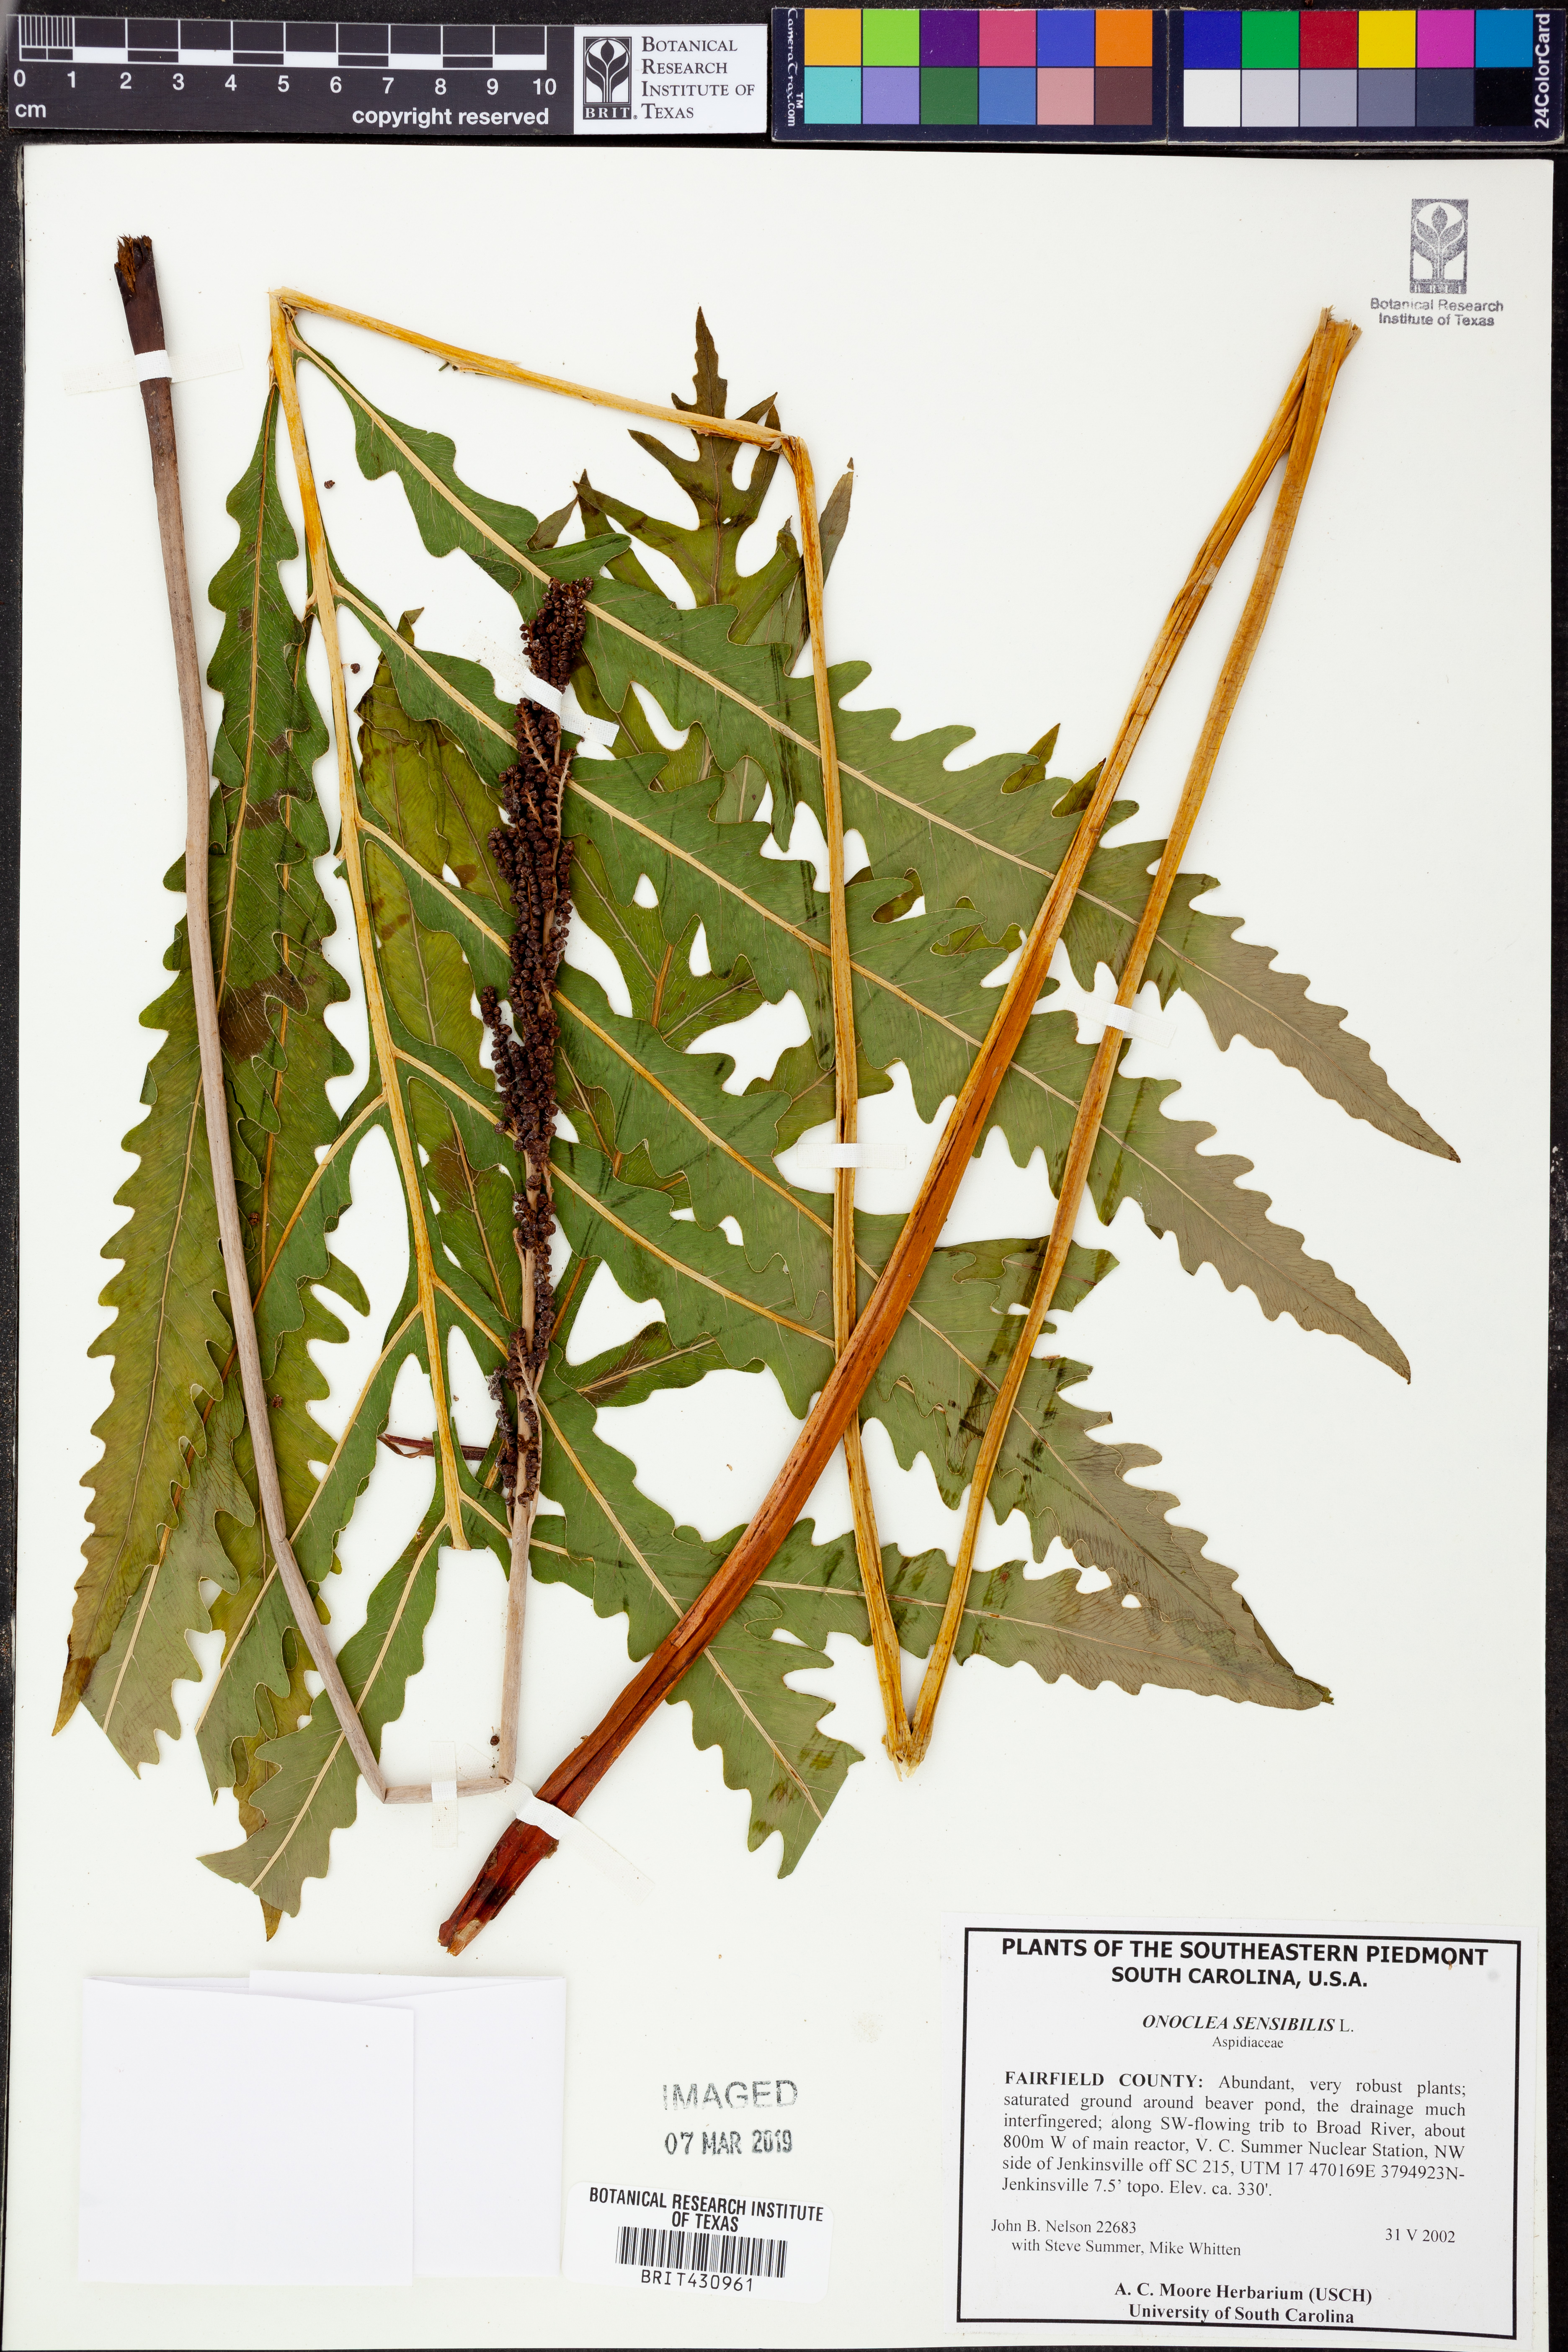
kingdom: Plantae
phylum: Tracheophyta
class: Polypodiopsida
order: Polypodiales
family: Onocleaceae
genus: Onoclea
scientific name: Onoclea sensibilis
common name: Sensitive fern
